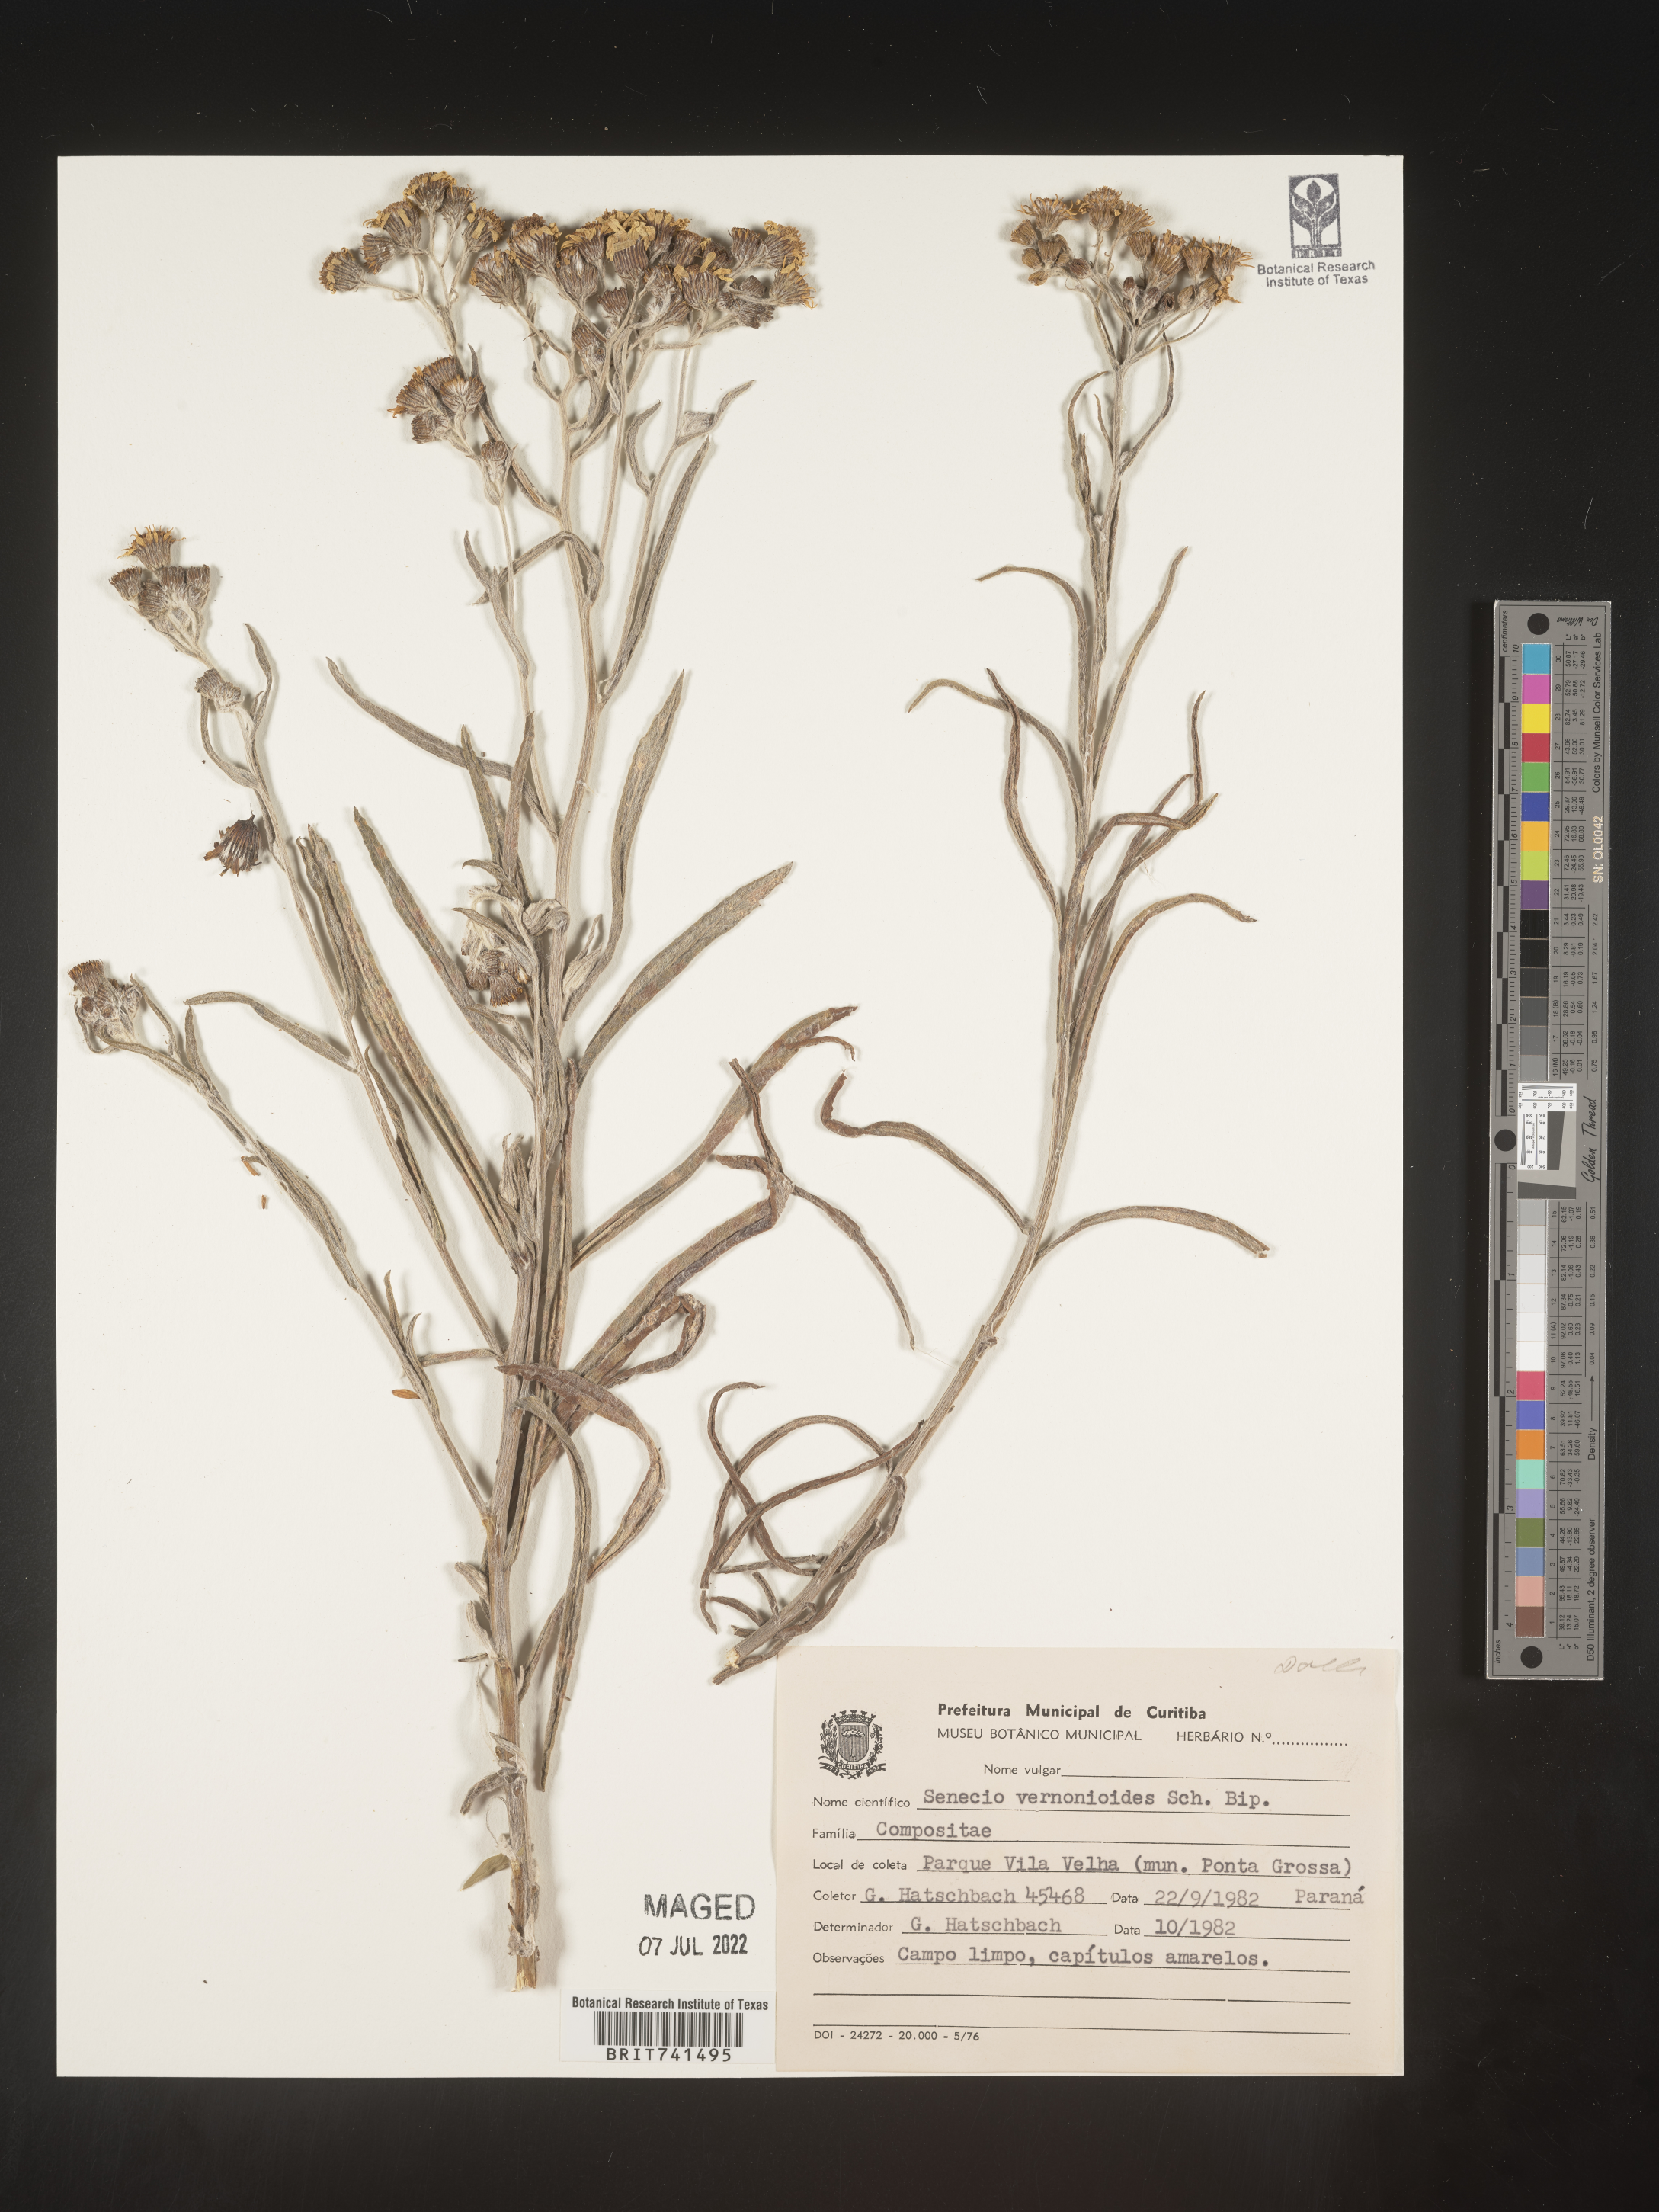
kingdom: Plantae
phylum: Tracheophyta
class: Magnoliopsida
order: Asterales
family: Asteraceae
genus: Senecio
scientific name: Senecio
